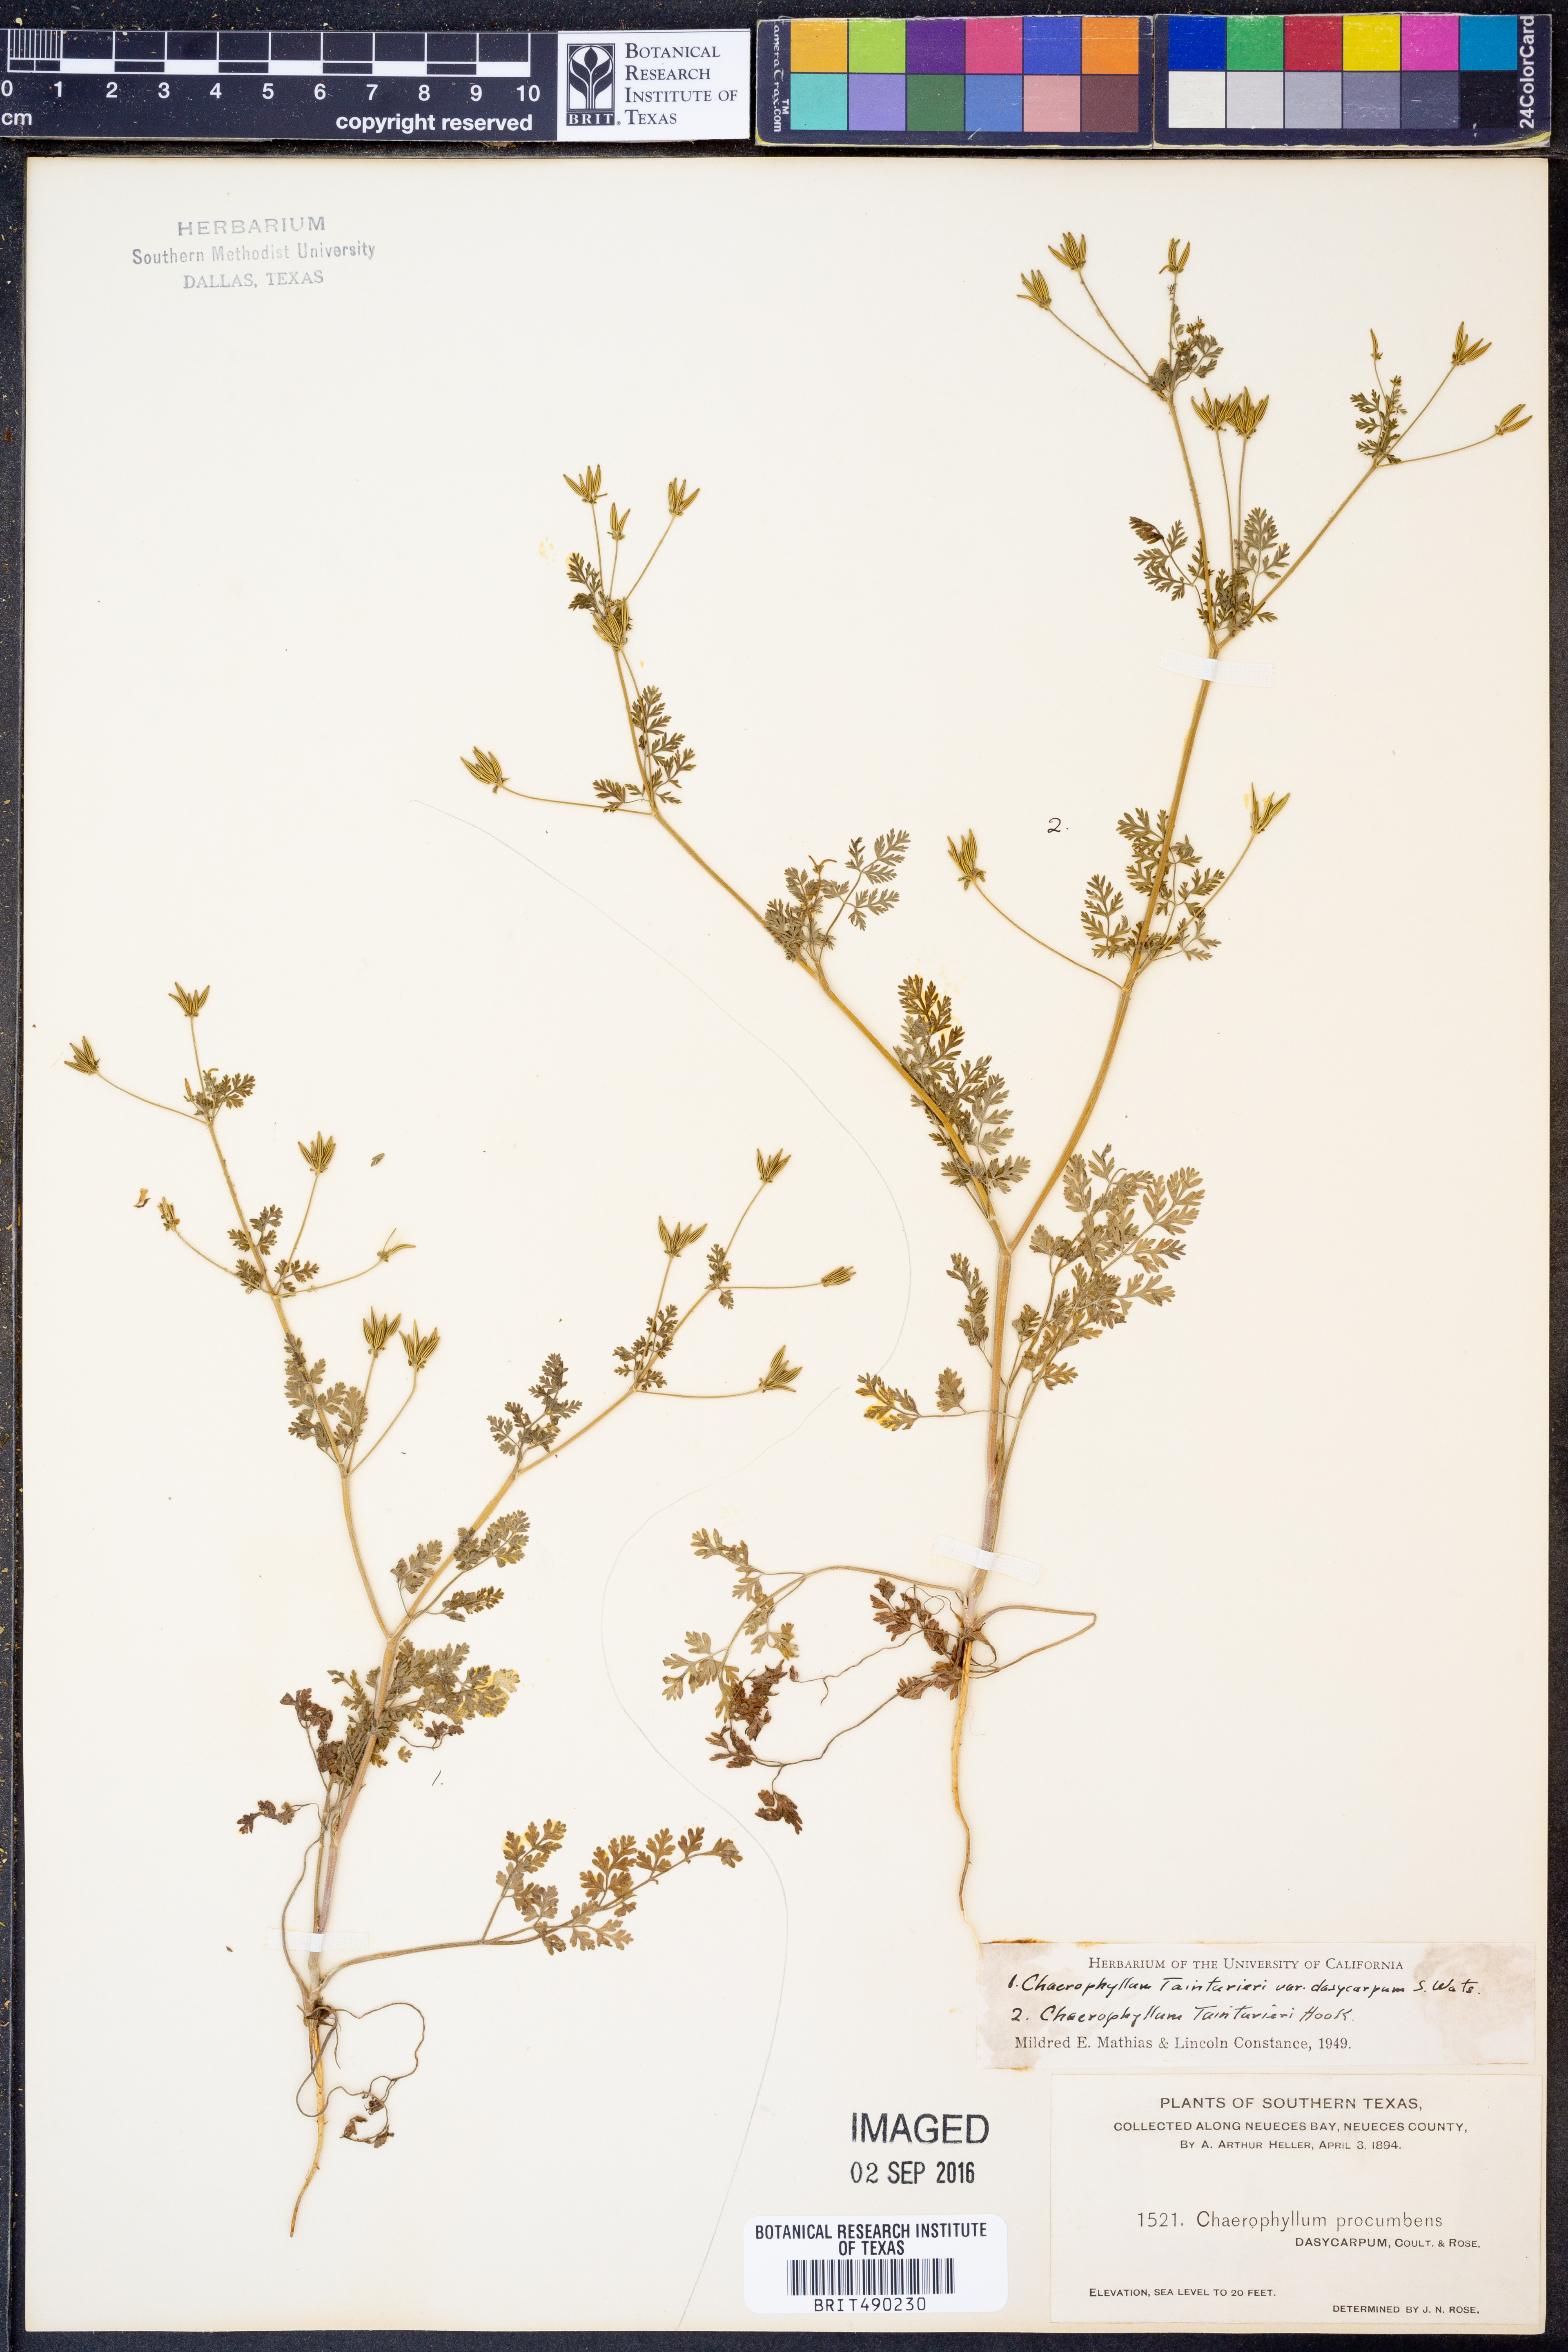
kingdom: Plantae
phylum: Tracheophyta
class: Magnoliopsida
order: Apiales
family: Apiaceae
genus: Chaerophyllum
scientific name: Chaerophyllum dasycarpum
